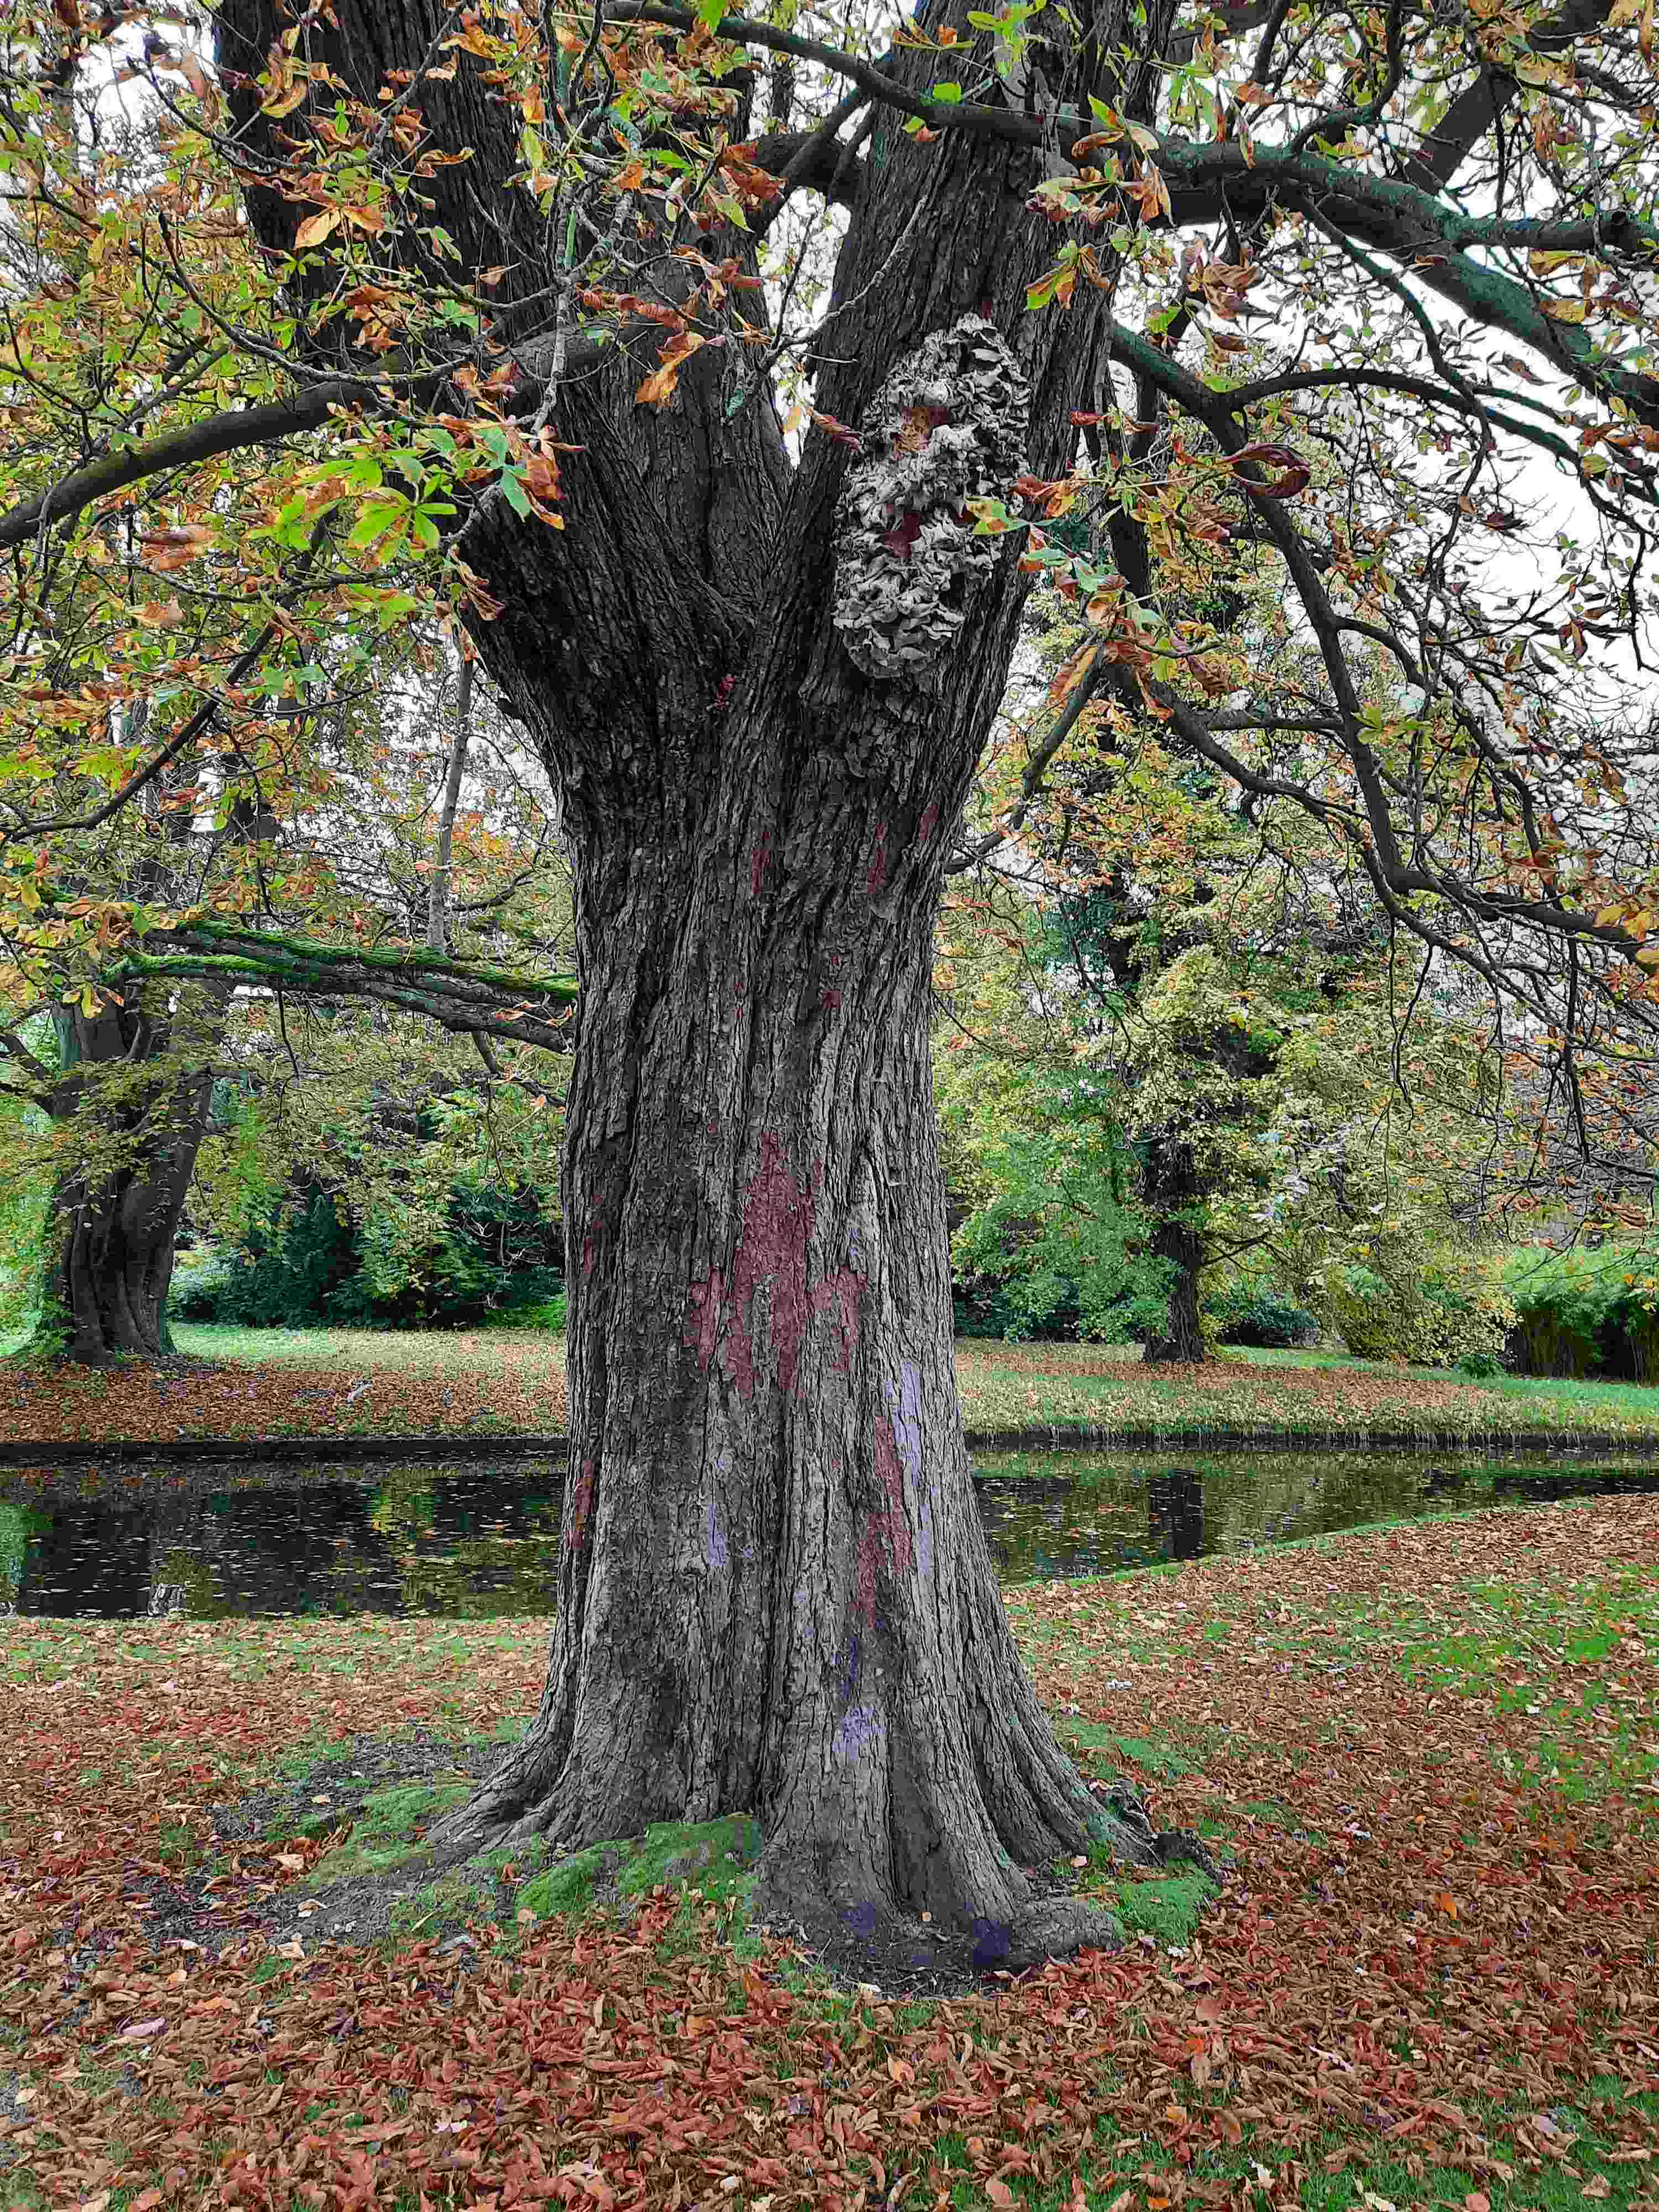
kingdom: Fungi
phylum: Basidiomycota
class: Agaricomycetes
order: Polyporales
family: Meruliaceae
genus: Climacodon
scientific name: Climacodon septentrionalis
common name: kæmpepigsvamp
